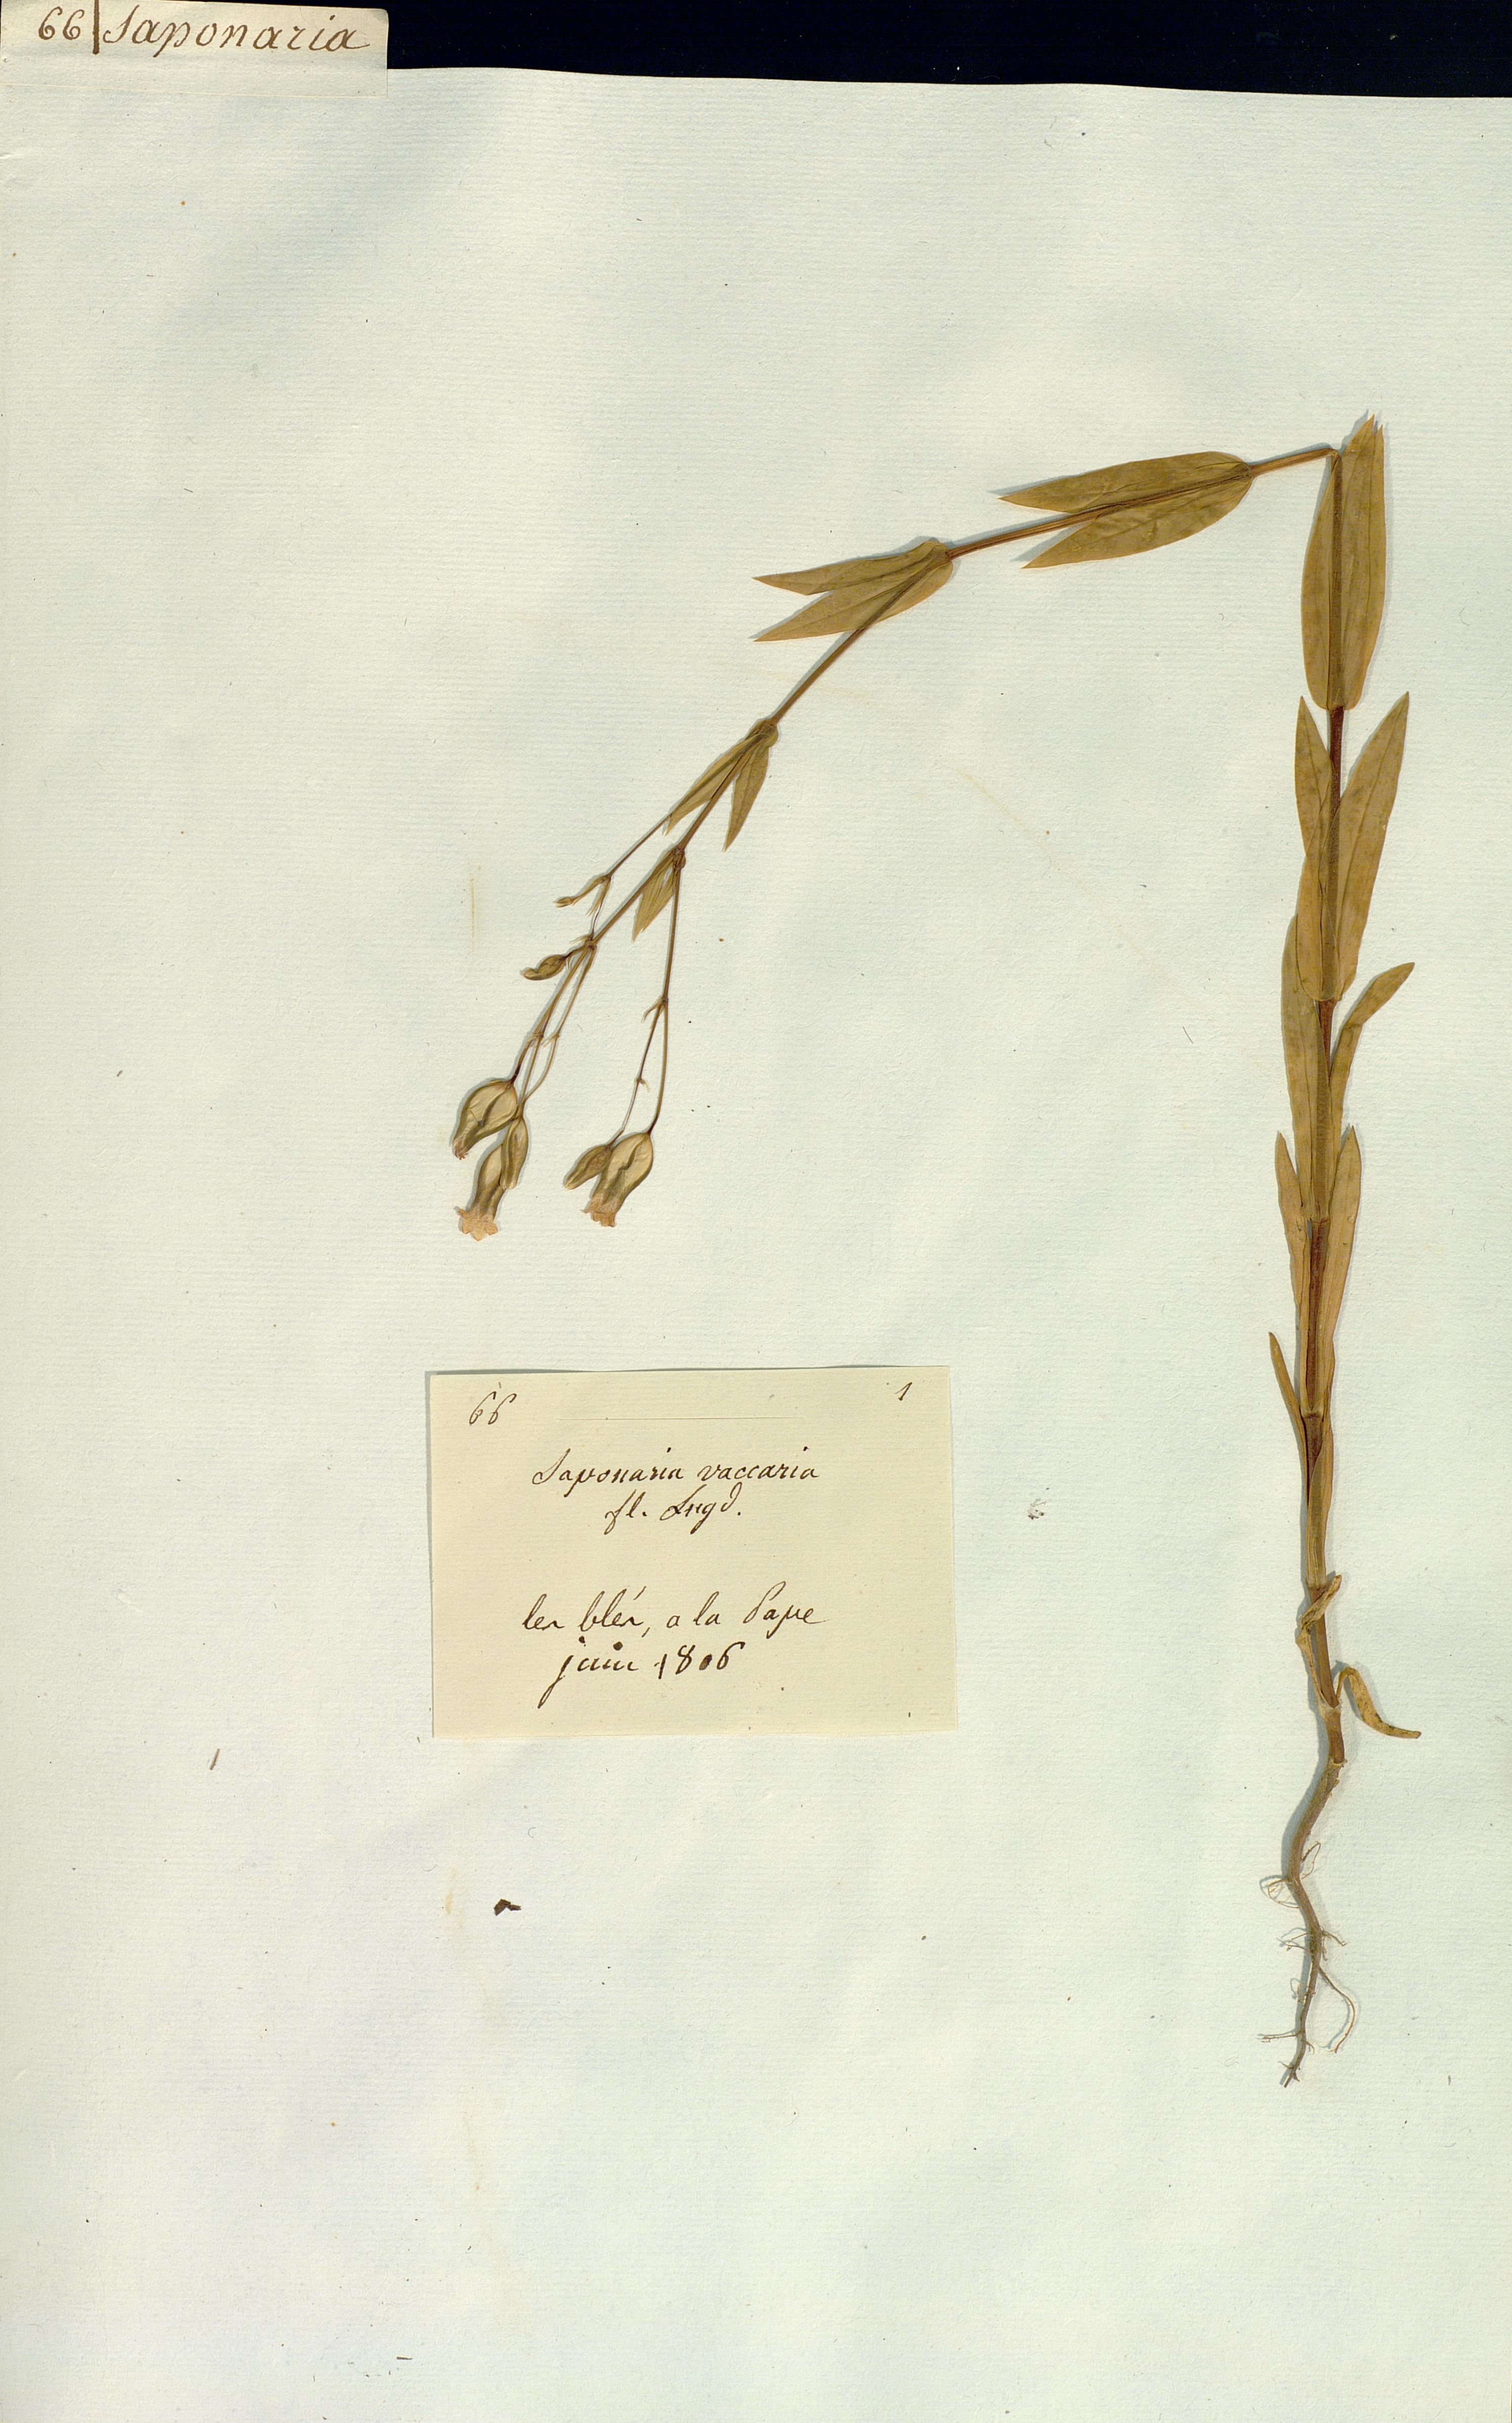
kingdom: Plantae
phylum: Tracheophyta
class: Magnoliopsida
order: Caryophyllales
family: Caryophyllaceae
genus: Gypsophila
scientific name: Gypsophila vaccaria
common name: Cow soapwort
